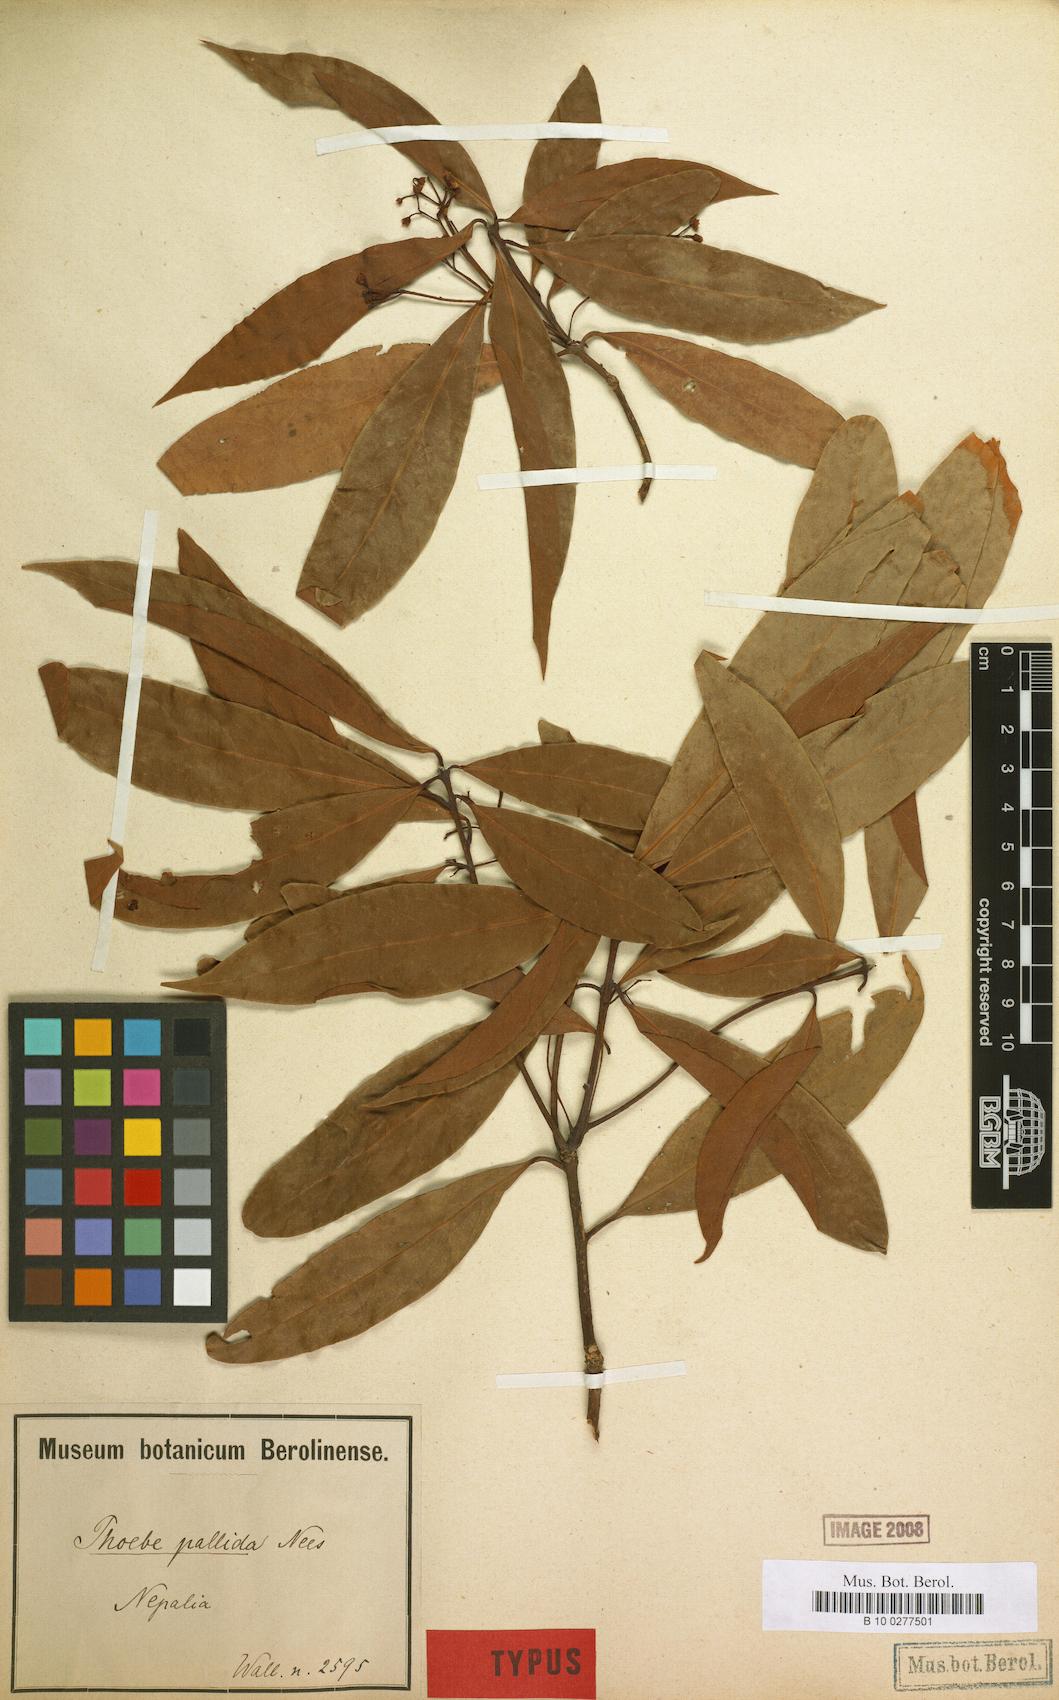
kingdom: Plantae
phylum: Tracheophyta
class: Magnoliopsida
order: Laurales
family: Lauraceae
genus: Phoebe
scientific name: Phoebe pallida
